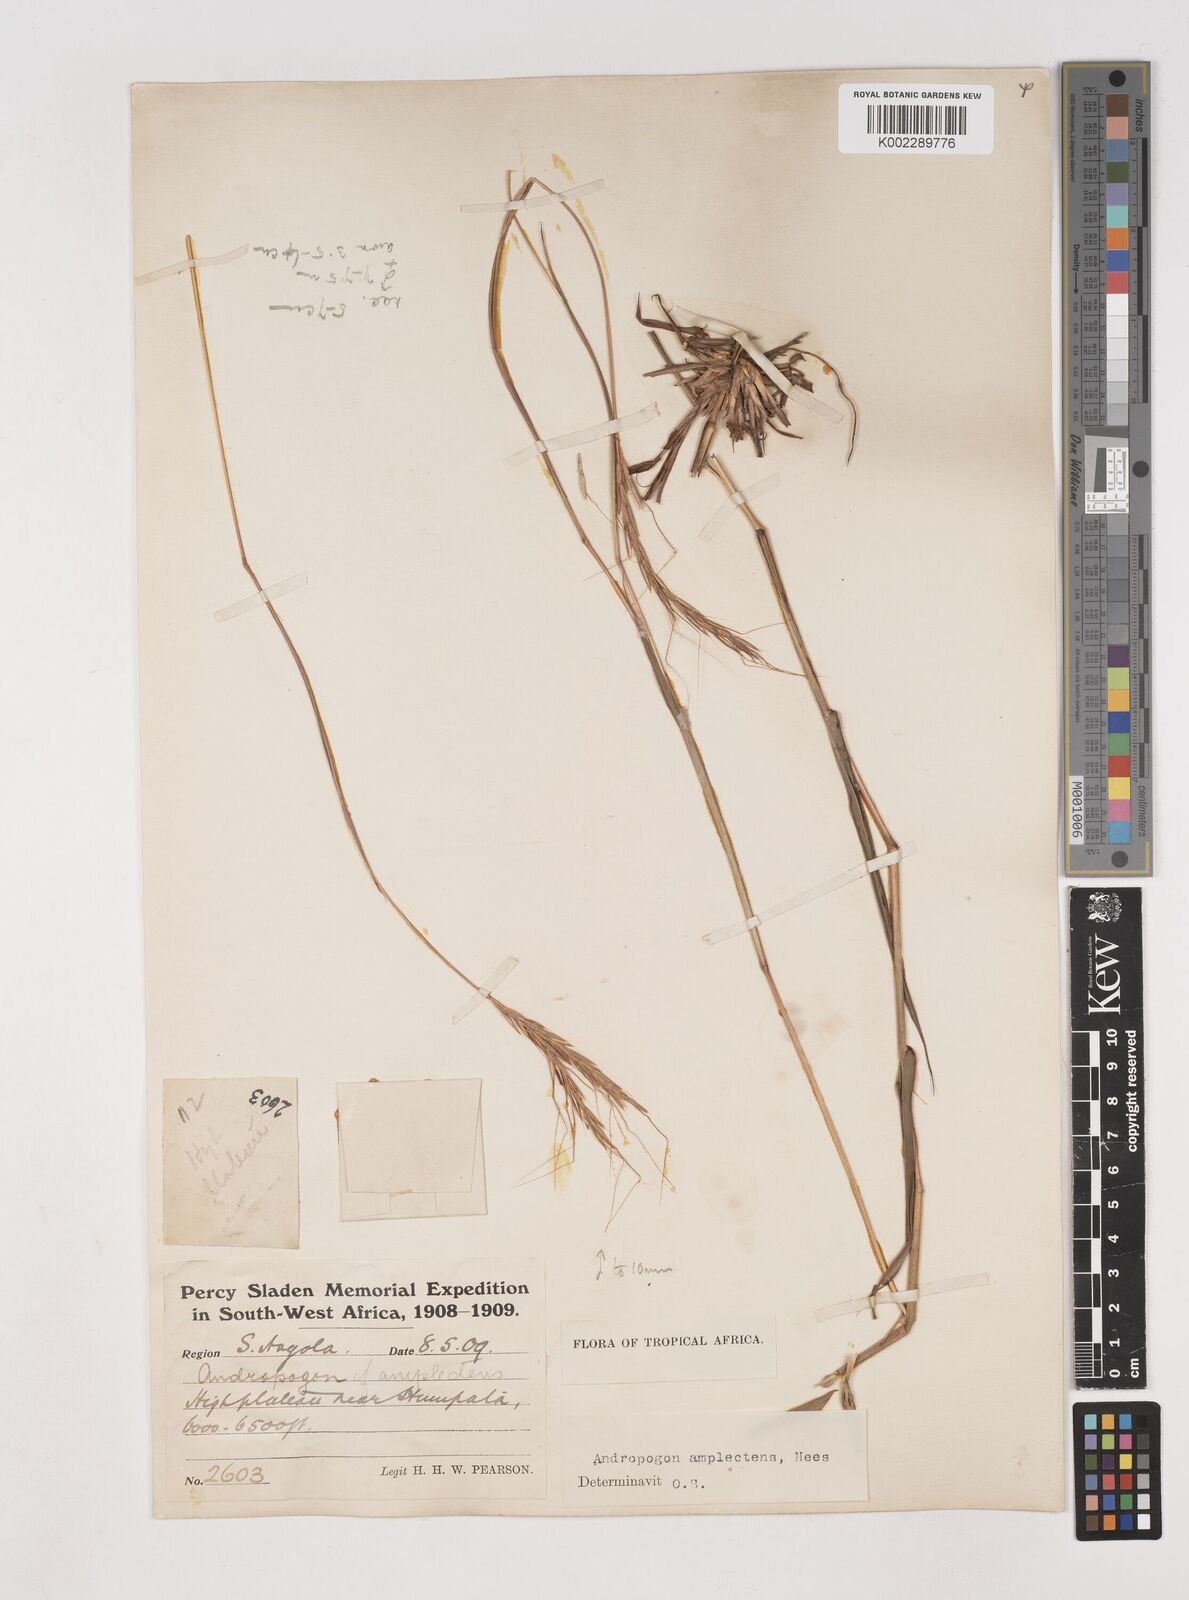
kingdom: Plantae
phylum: Tracheophyta
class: Liliopsida
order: Poales
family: Poaceae
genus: Diheteropogon
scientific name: Diheteropogon amplectens
